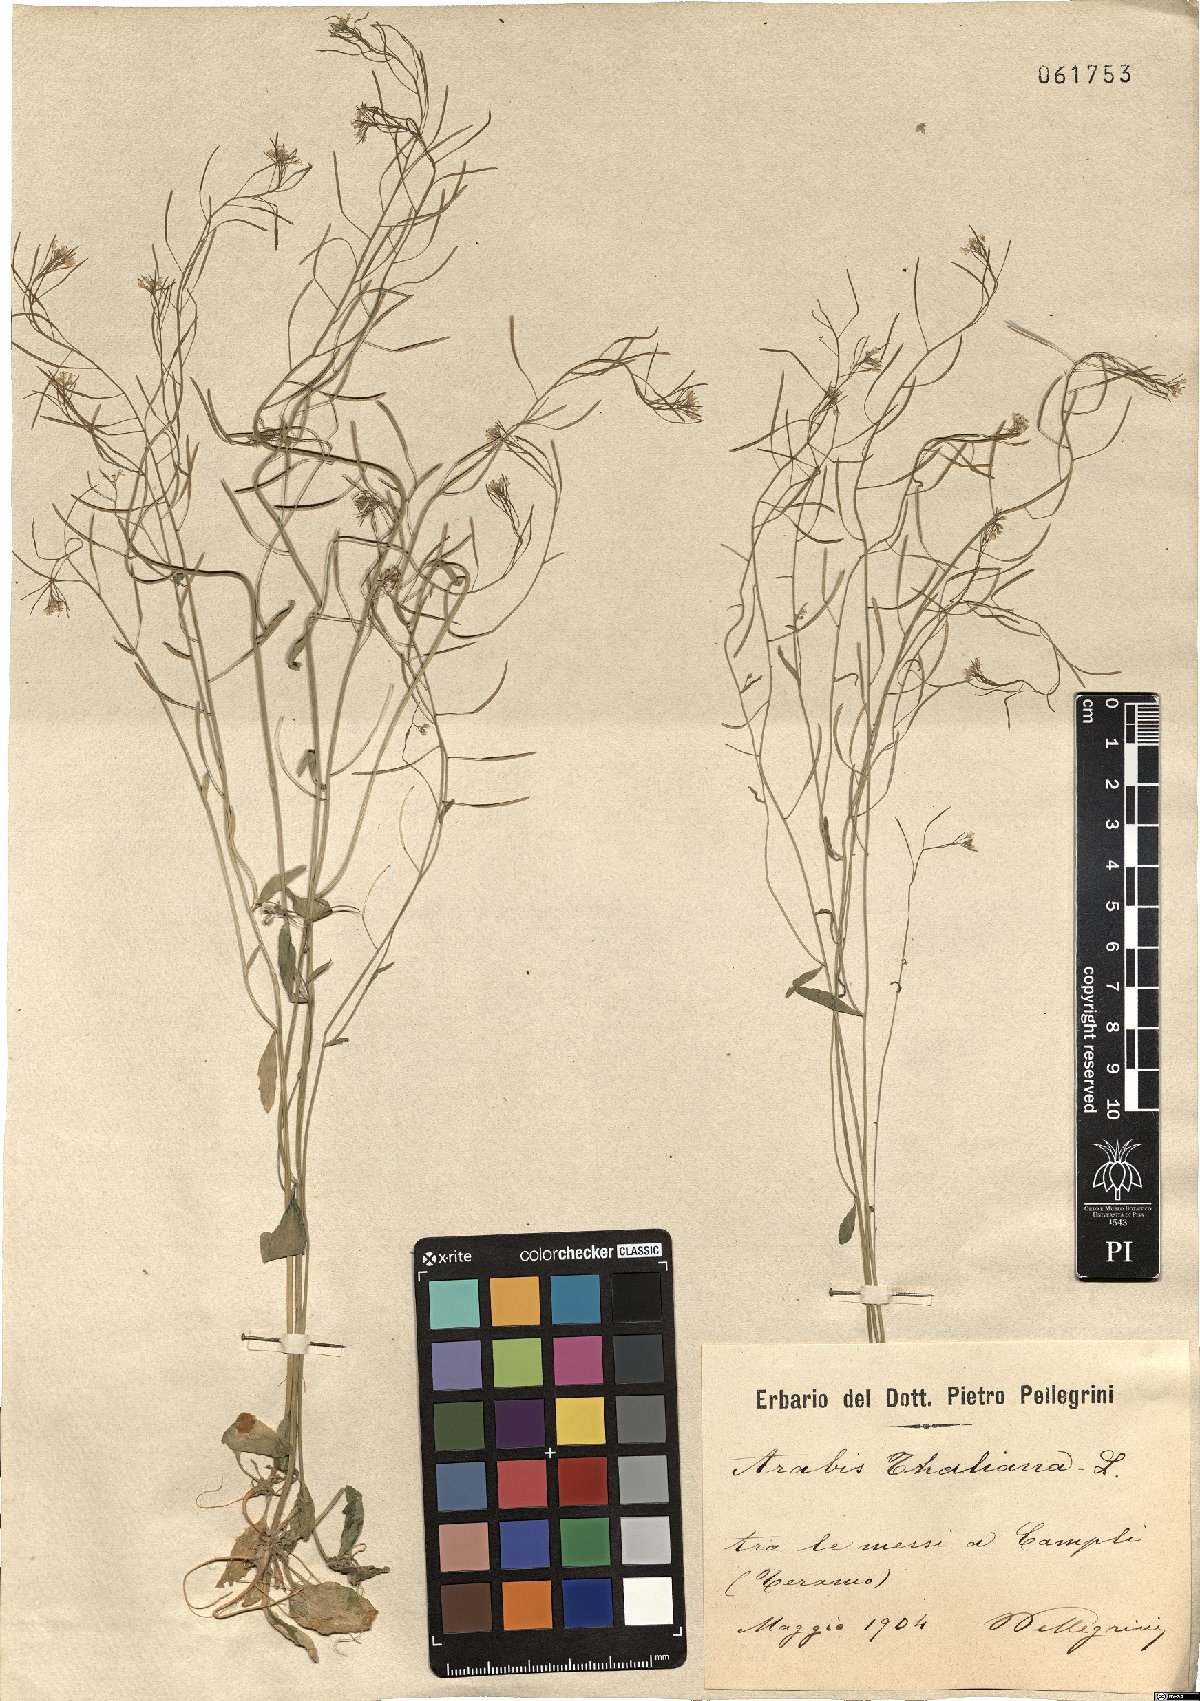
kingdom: Plantae
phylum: Tracheophyta
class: Magnoliopsida
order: Brassicales
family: Brassicaceae
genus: Arabidopsis
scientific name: Arabidopsis thaliana
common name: Thale cress
